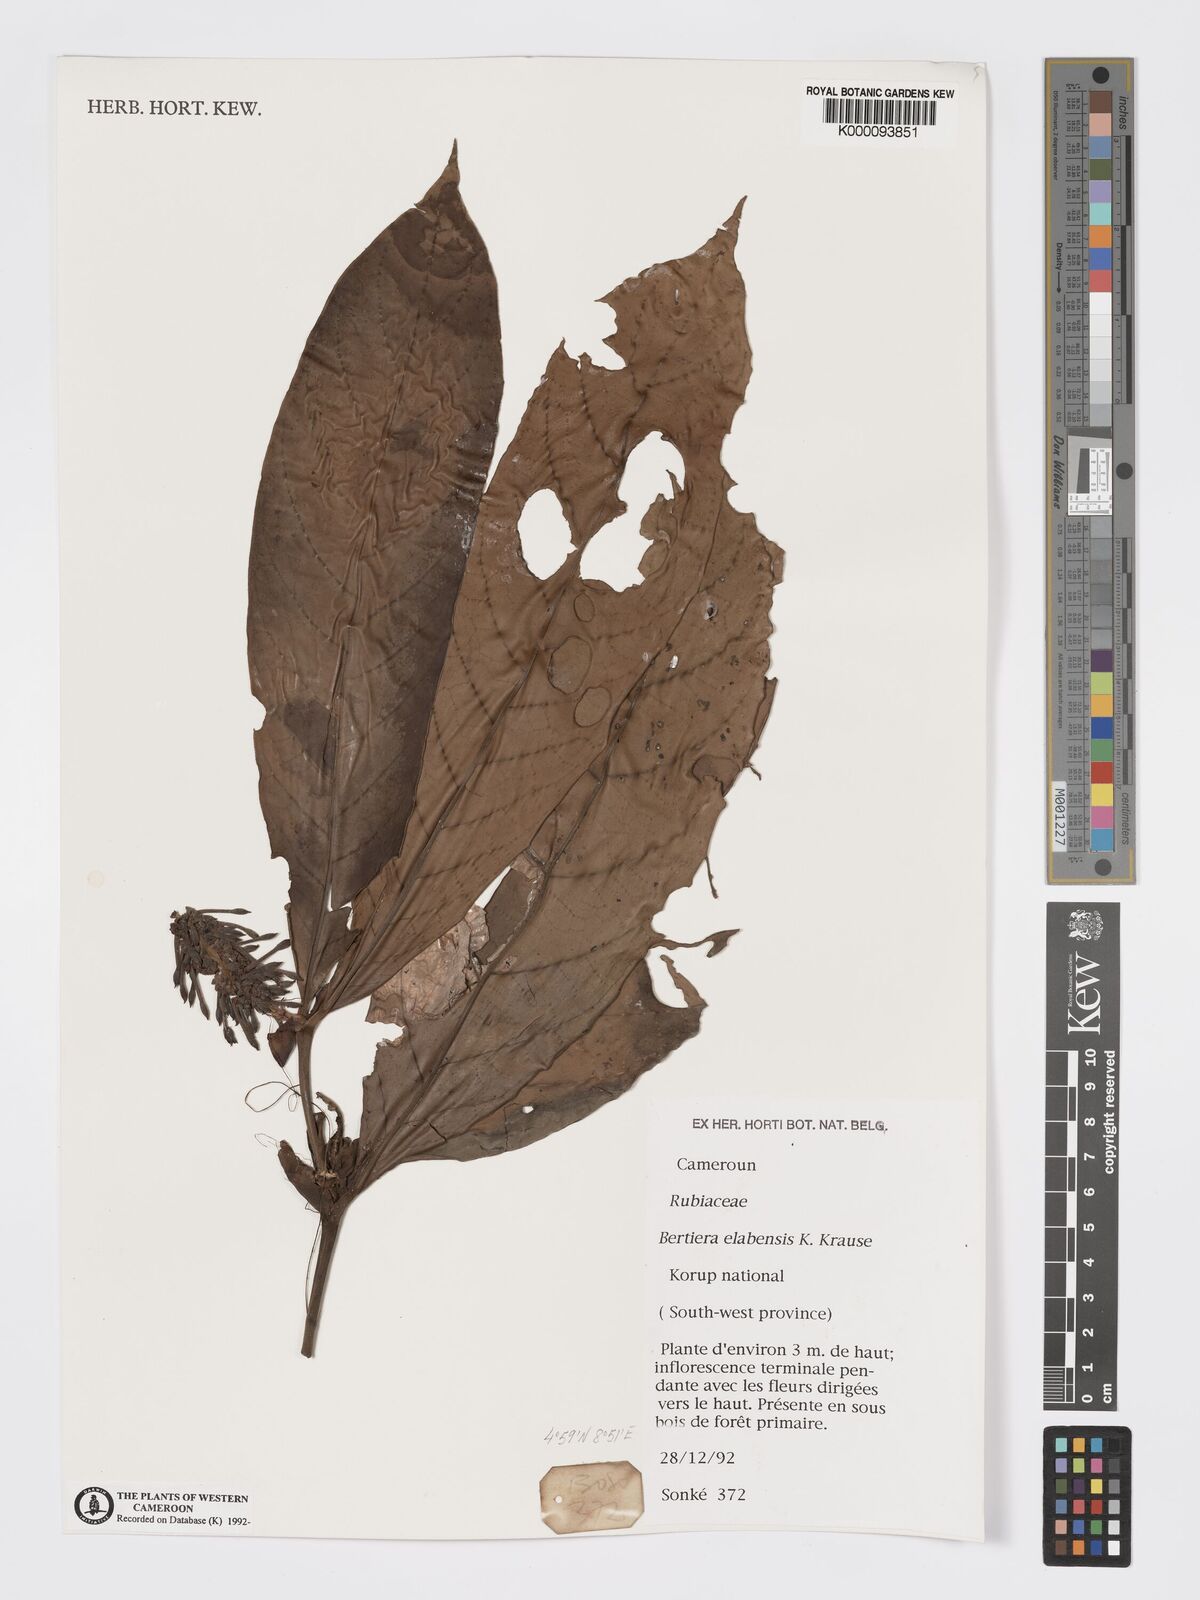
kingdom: Plantae
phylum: Tracheophyta
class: Magnoliopsida
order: Gentianales
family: Rubiaceae
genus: Bertiera
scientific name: Bertiera
